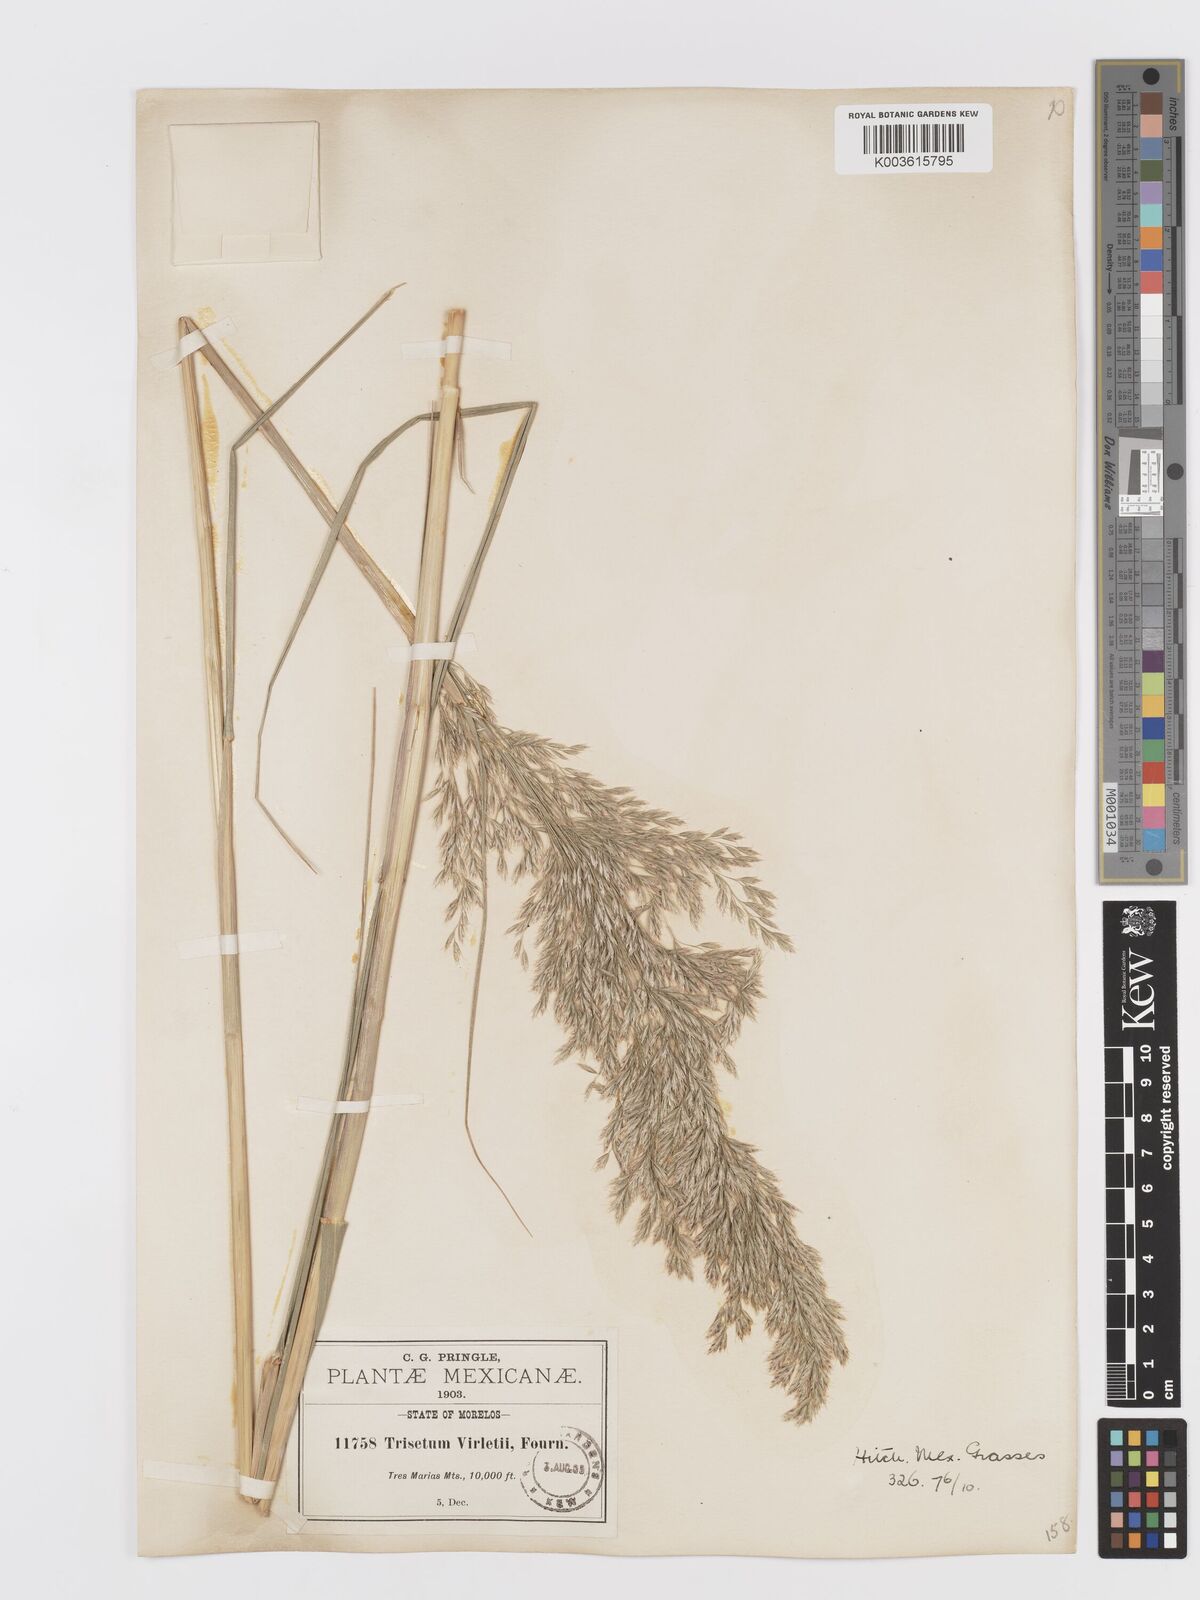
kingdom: Plantae
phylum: Tracheophyta
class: Liliopsida
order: Poales
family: Poaceae
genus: Peyritschia
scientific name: Peyritschia virletii
